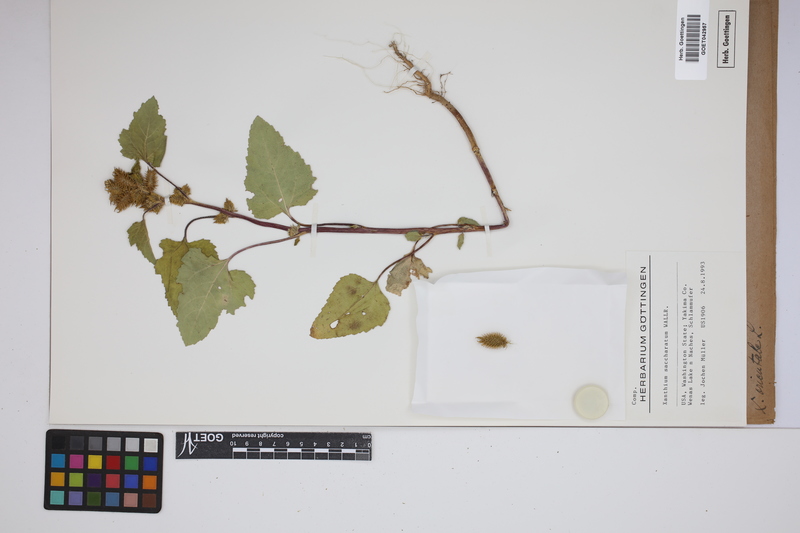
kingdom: Plantae
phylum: Tracheophyta
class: Magnoliopsida
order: Asterales
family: Asteraceae
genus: Xanthium
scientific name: Xanthium orientale
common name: Californian burr
